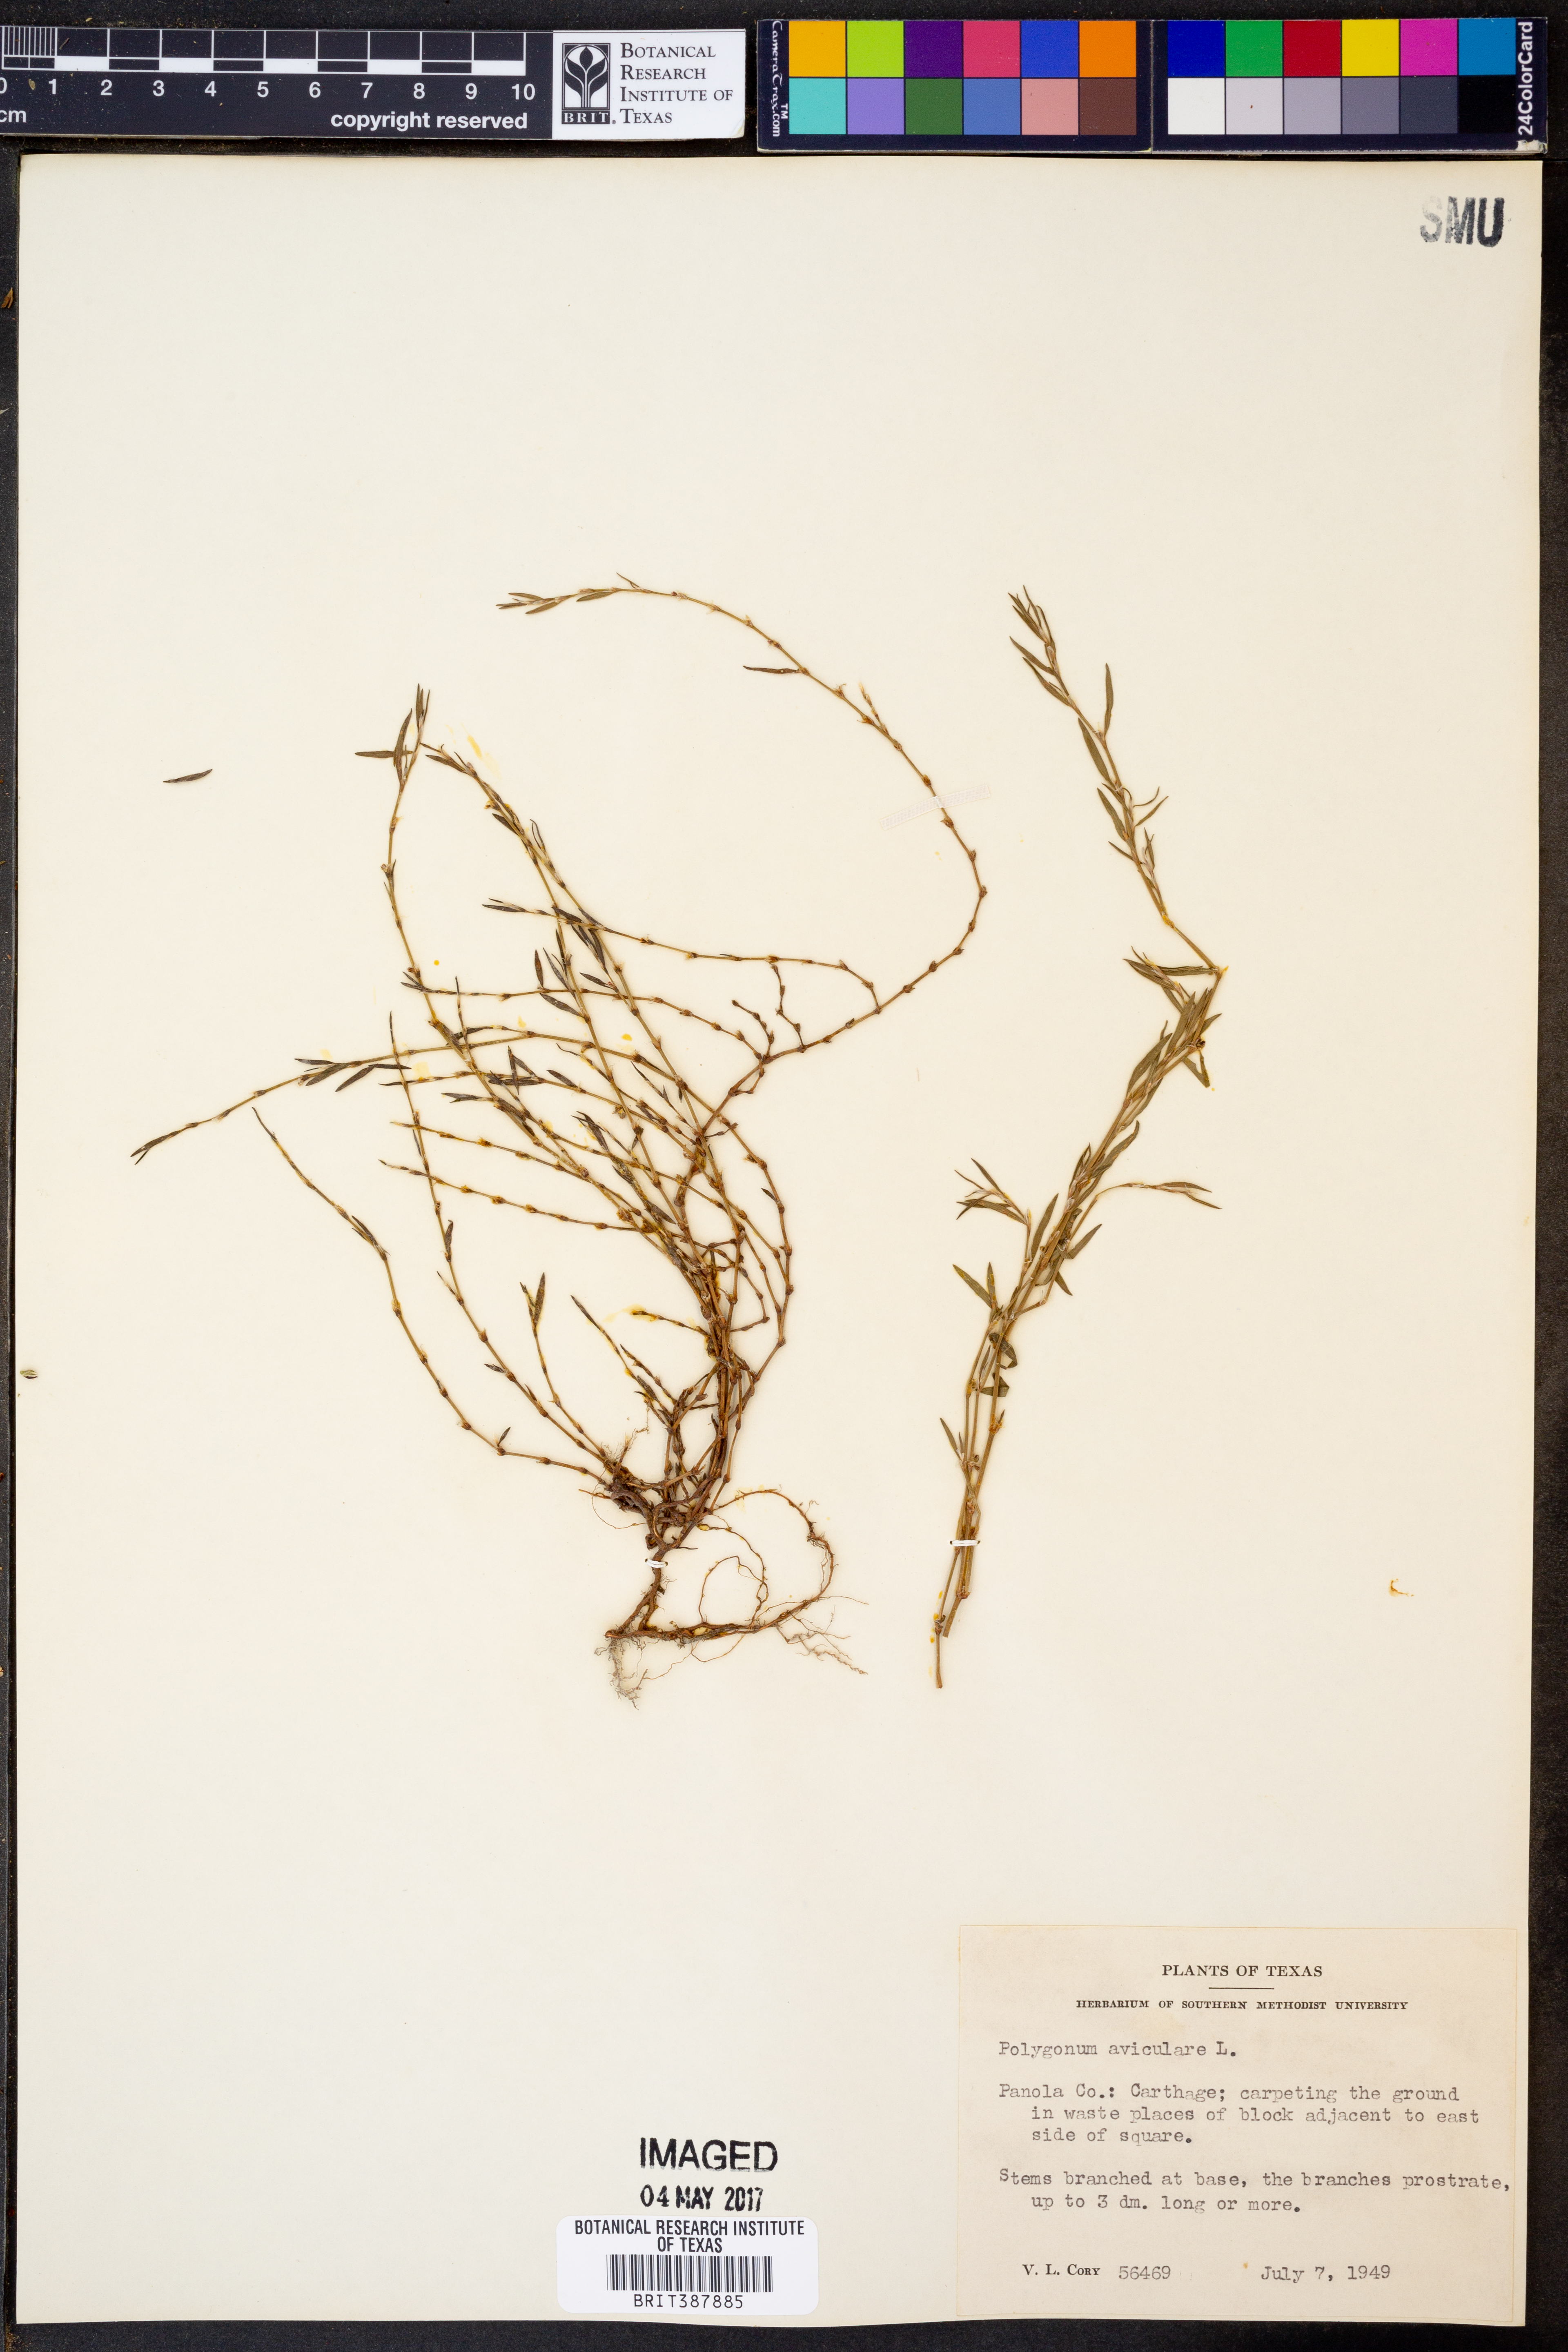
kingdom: Plantae
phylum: Tracheophyta
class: Magnoliopsida
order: Caryophyllales
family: Polygonaceae
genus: Polygonum
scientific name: Polygonum aviculare
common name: Prostrate knotweed
